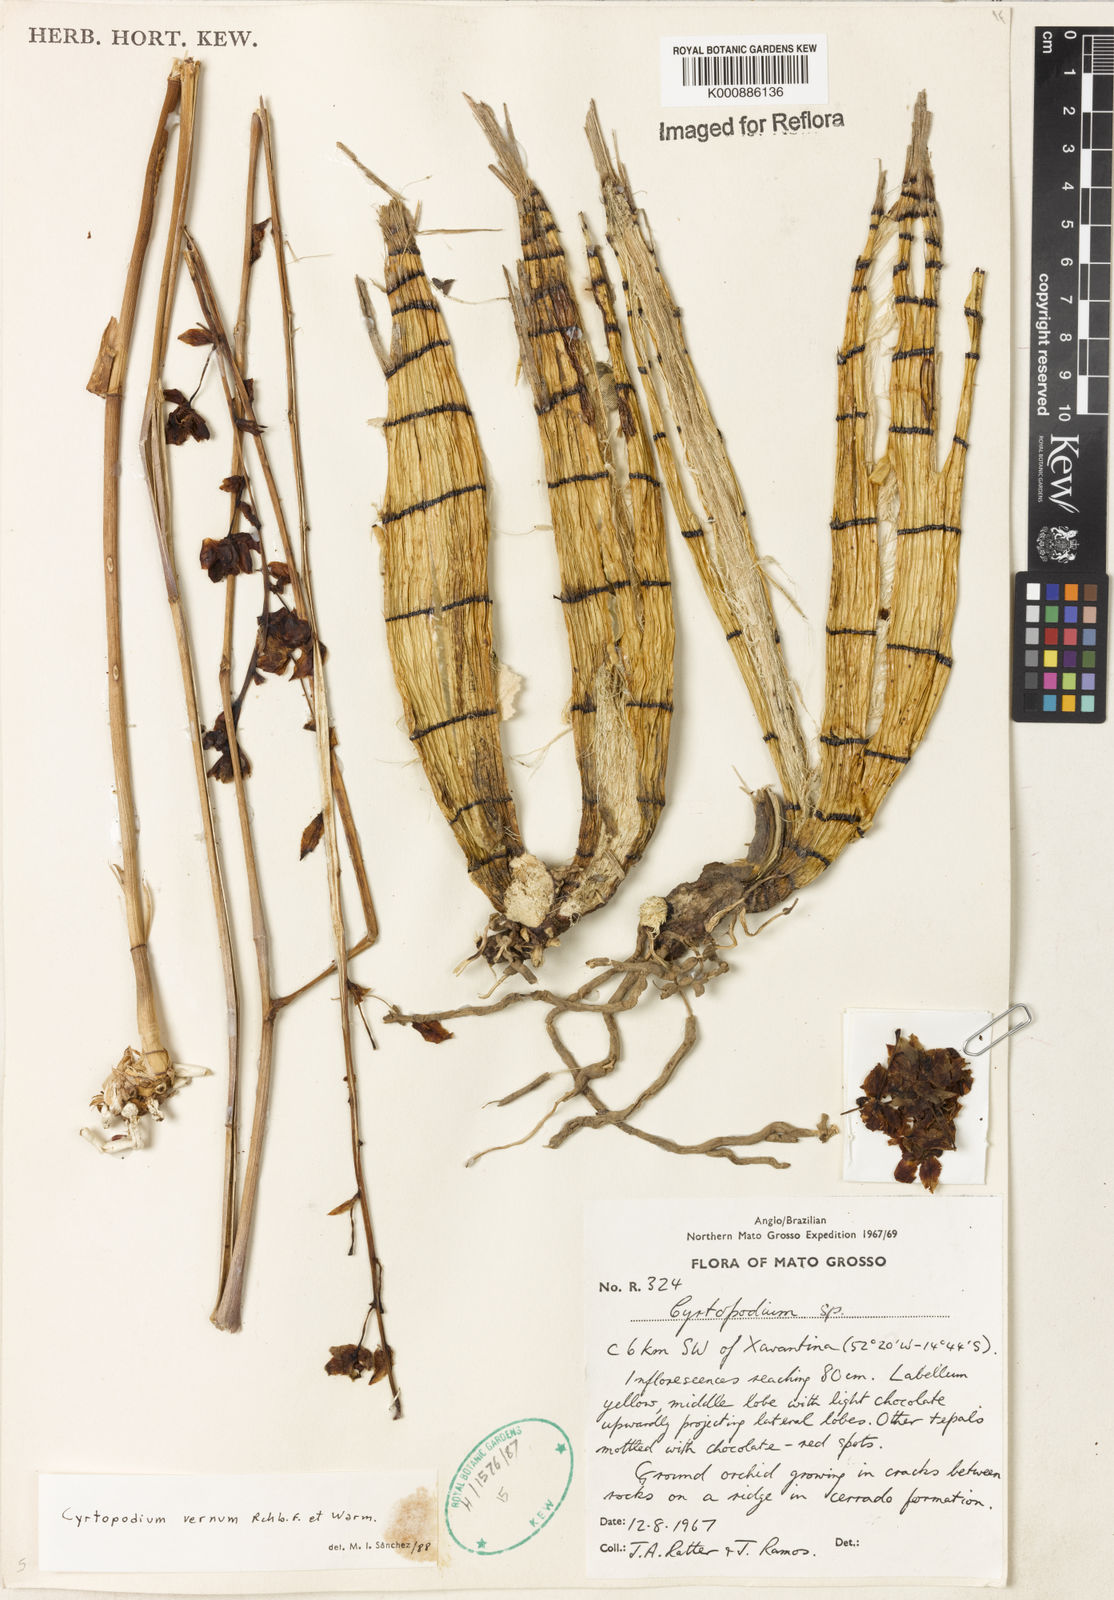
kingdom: Plantae
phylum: Tracheophyta
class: Liliopsida
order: Asparagales
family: Orchidaceae
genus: Cyrtopodium
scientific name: Cyrtopodium vernum
